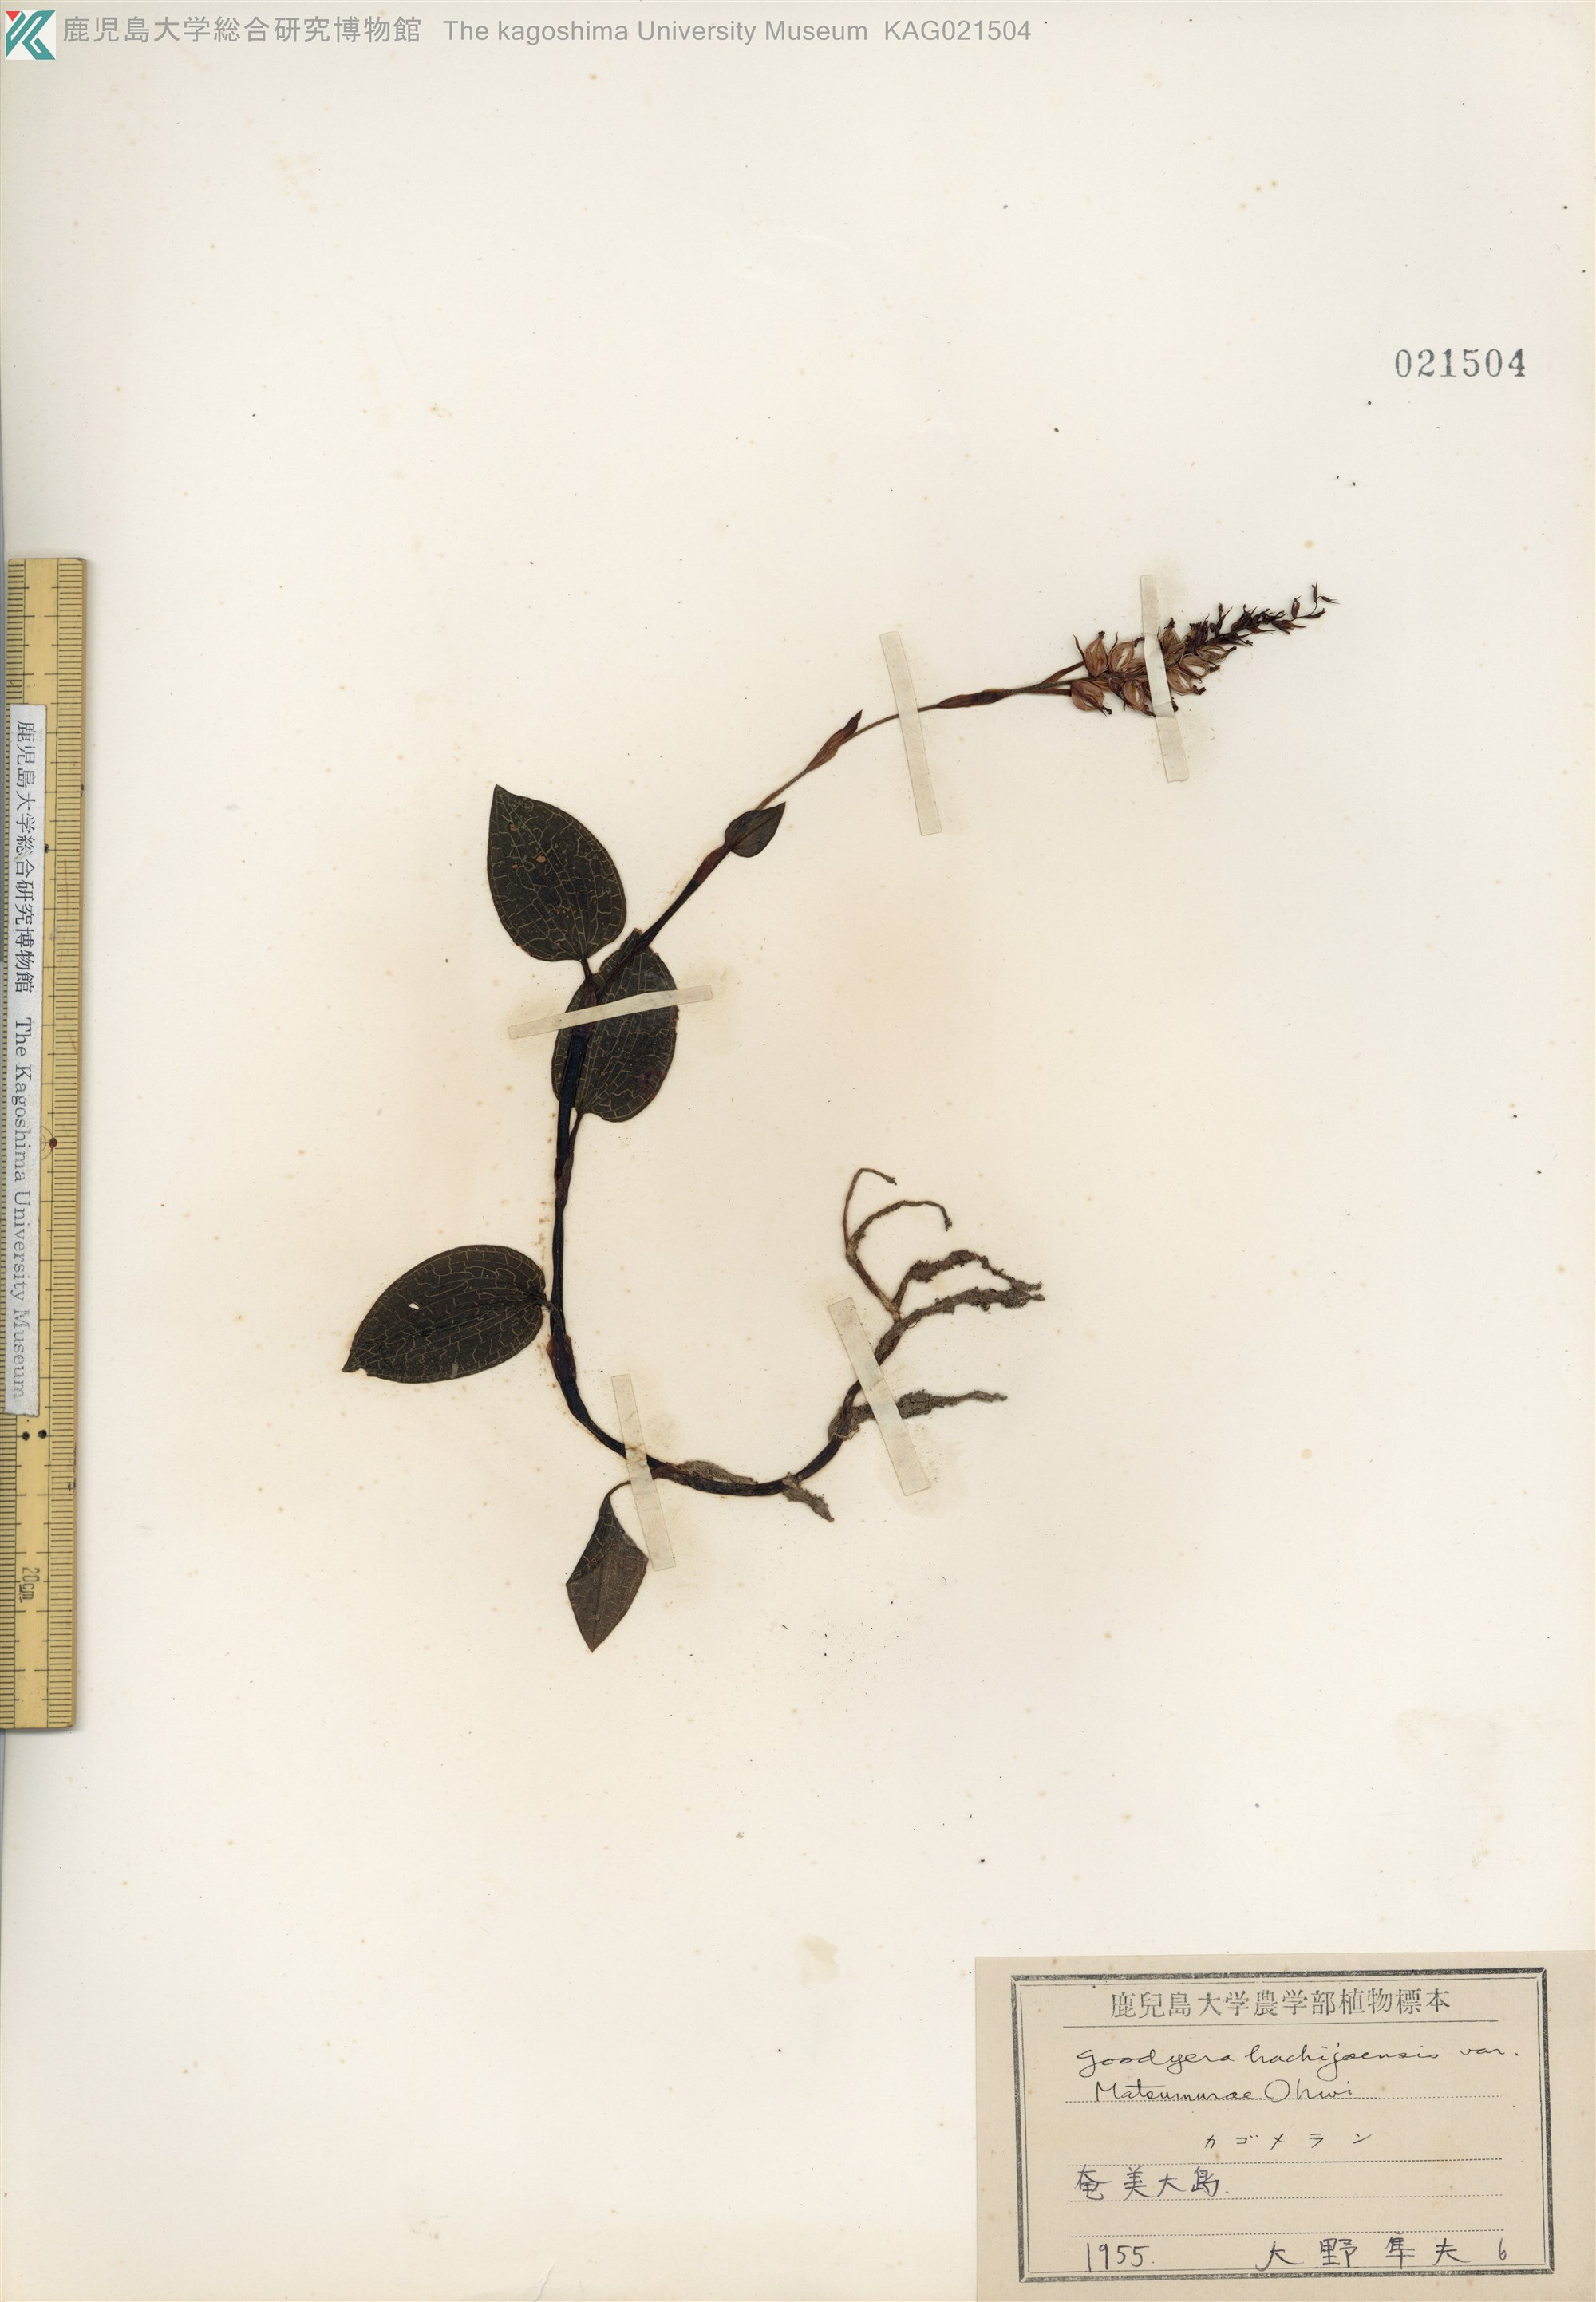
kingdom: Plantae
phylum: Tracheophyta
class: Liliopsida
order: Asparagales
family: Orchidaceae
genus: Goodyera
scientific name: Goodyera hachijoensis
